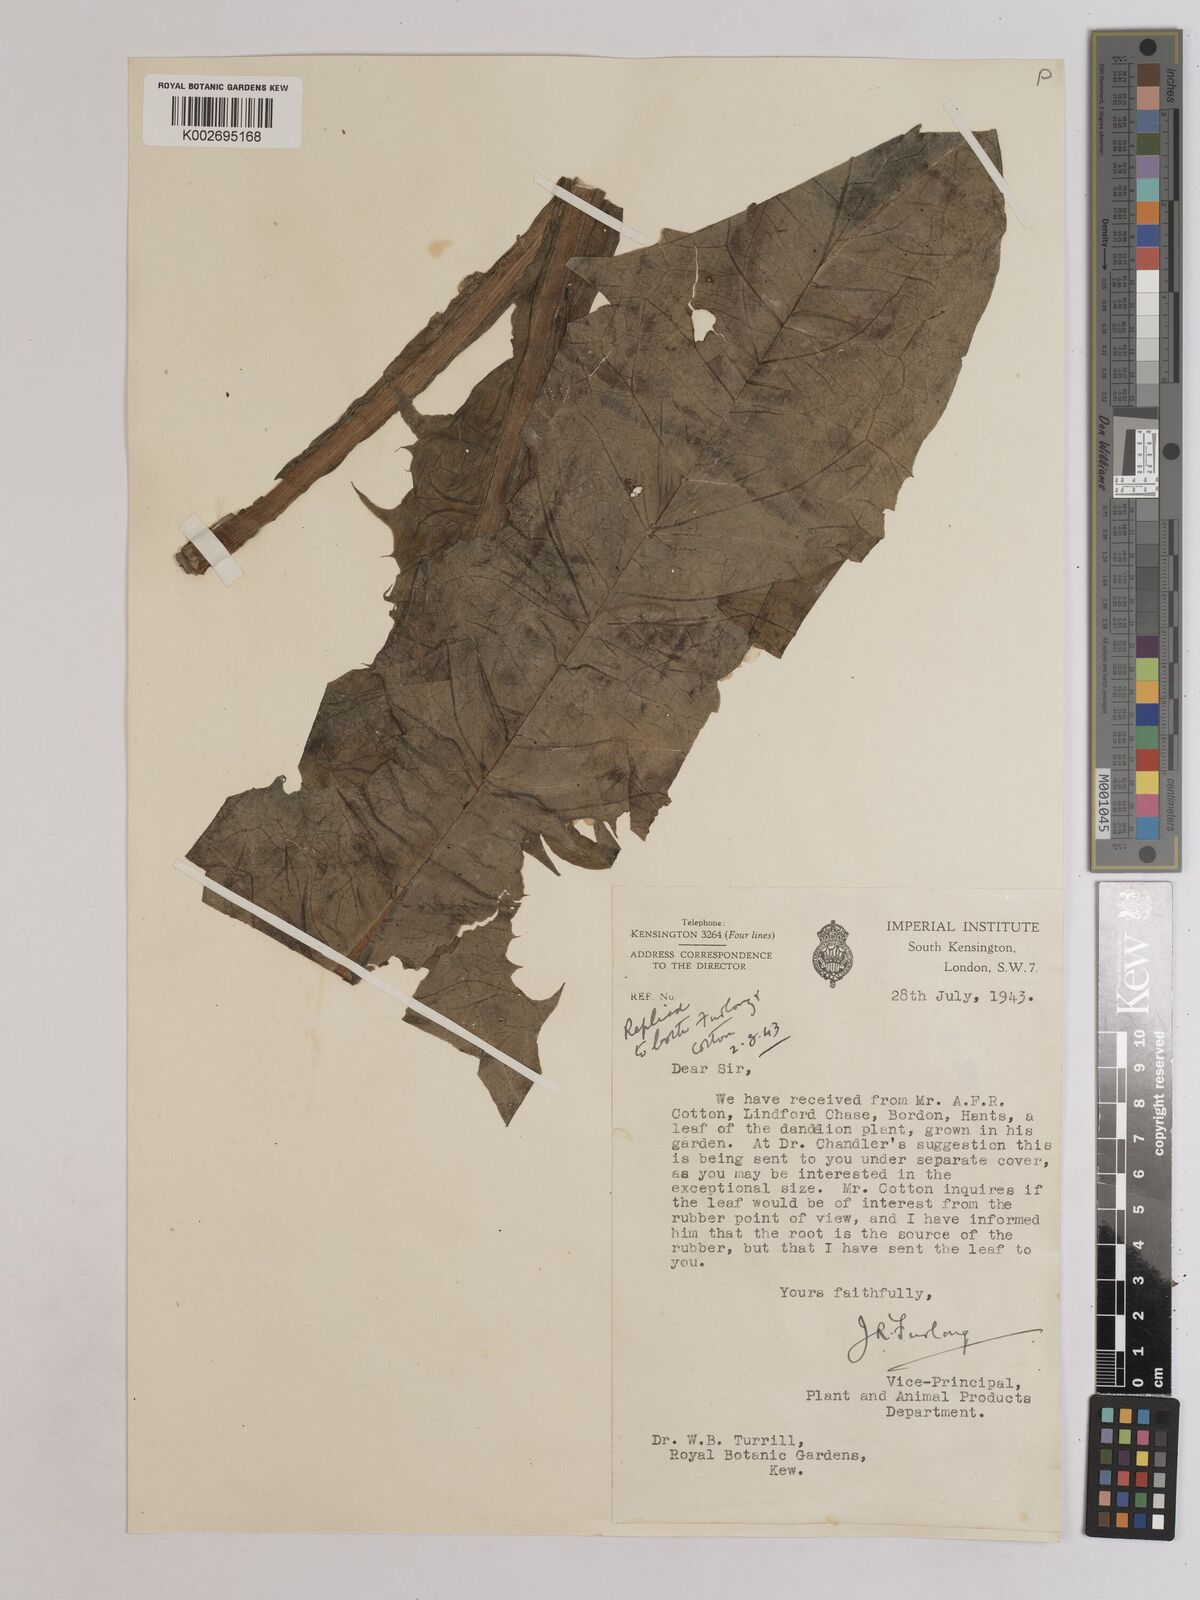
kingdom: Plantae
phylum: Tracheophyta
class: Magnoliopsida
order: Asterales
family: Asteraceae
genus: Taraxacum
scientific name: Taraxacum officinale
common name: Common dandelion
